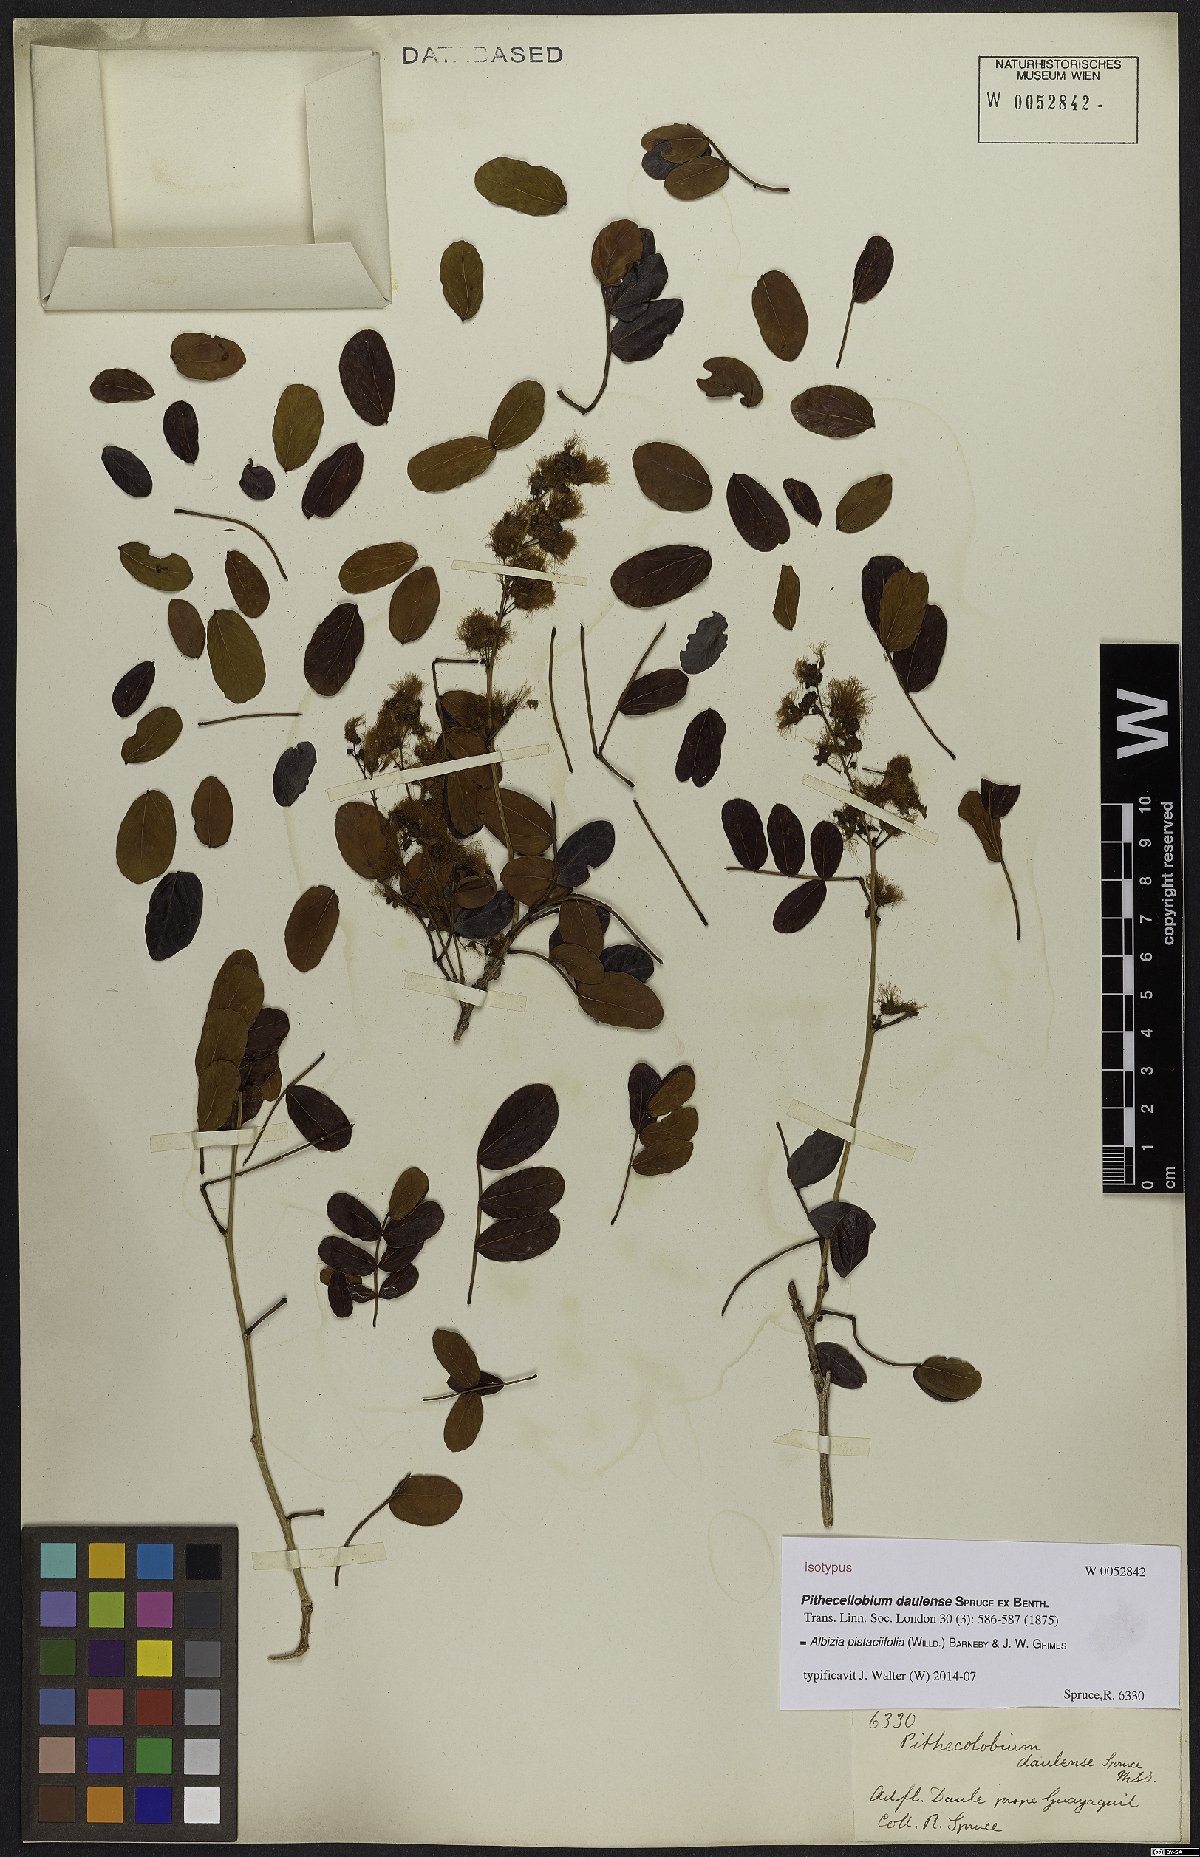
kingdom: Plantae
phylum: Tracheophyta
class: Magnoliopsida
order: Fabales
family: Fabaceae
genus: Albizia
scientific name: Albizia pistaciifolia
